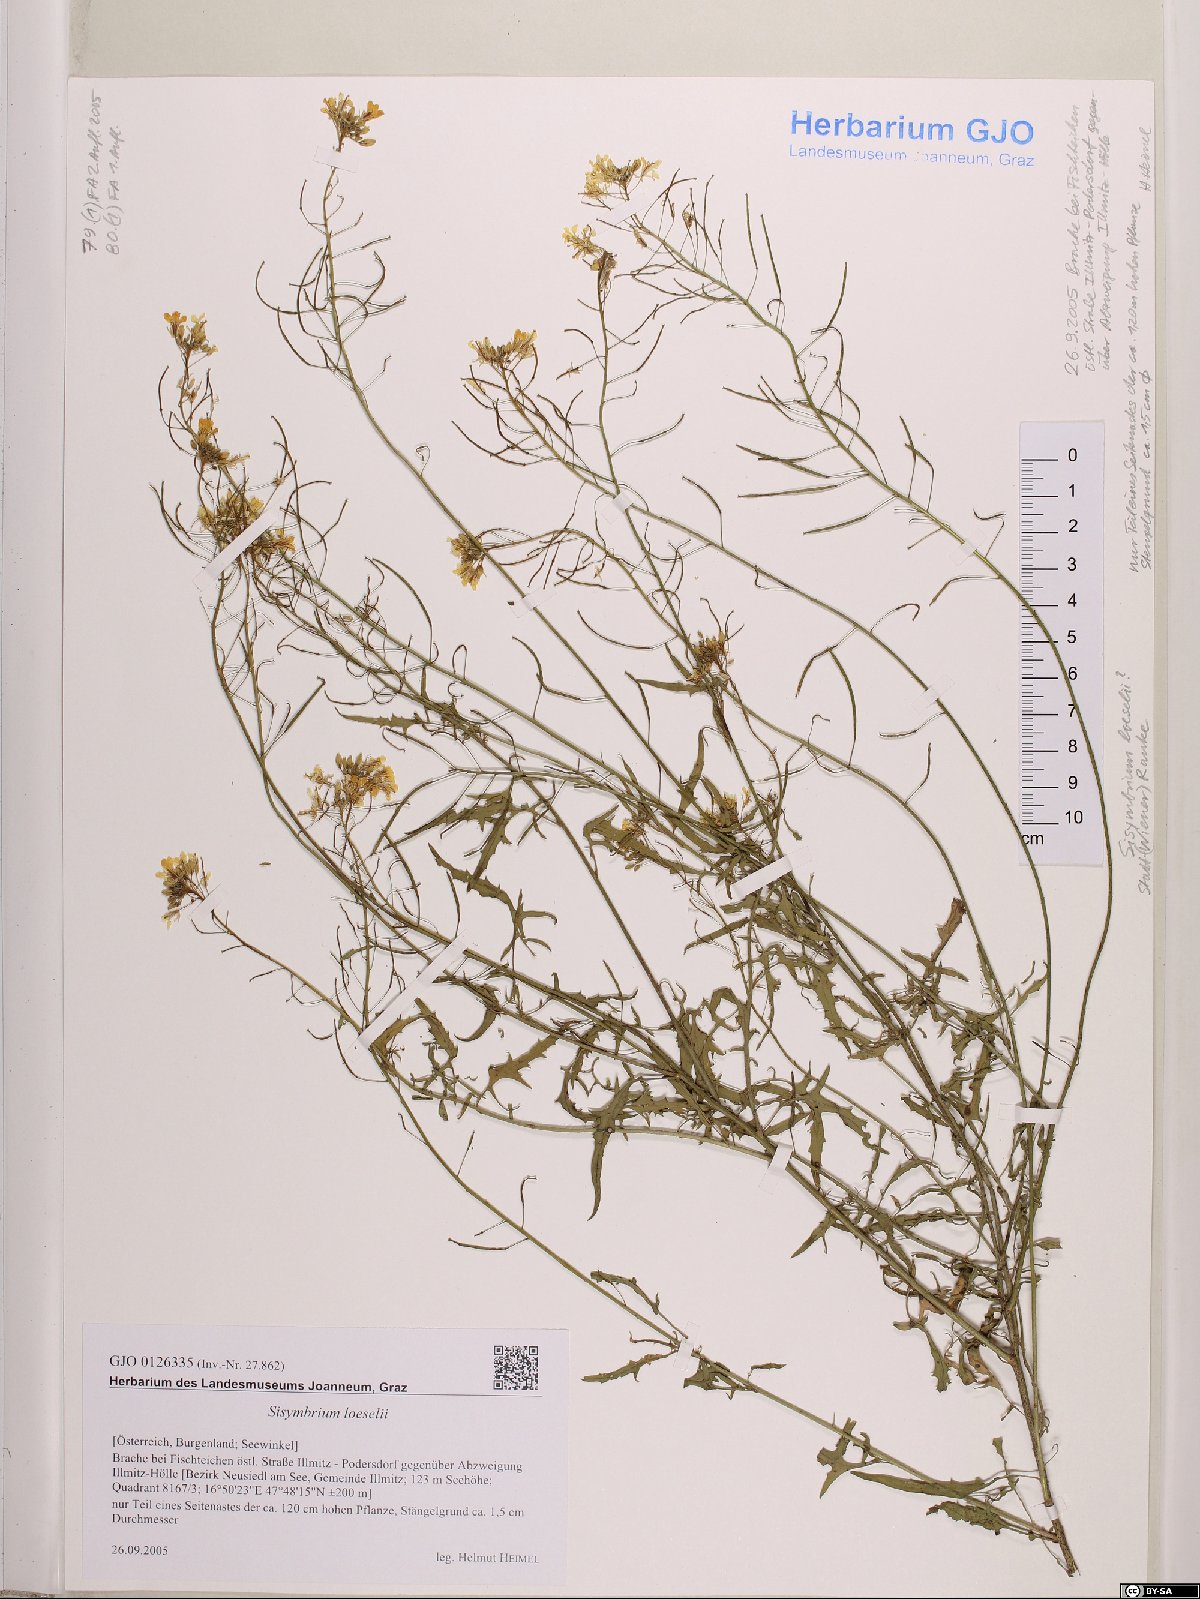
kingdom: Plantae
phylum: Tracheophyta
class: Magnoliopsida
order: Brassicales
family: Brassicaceae
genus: Sisymbrium
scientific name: Sisymbrium loeselii
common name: False london-rocket
